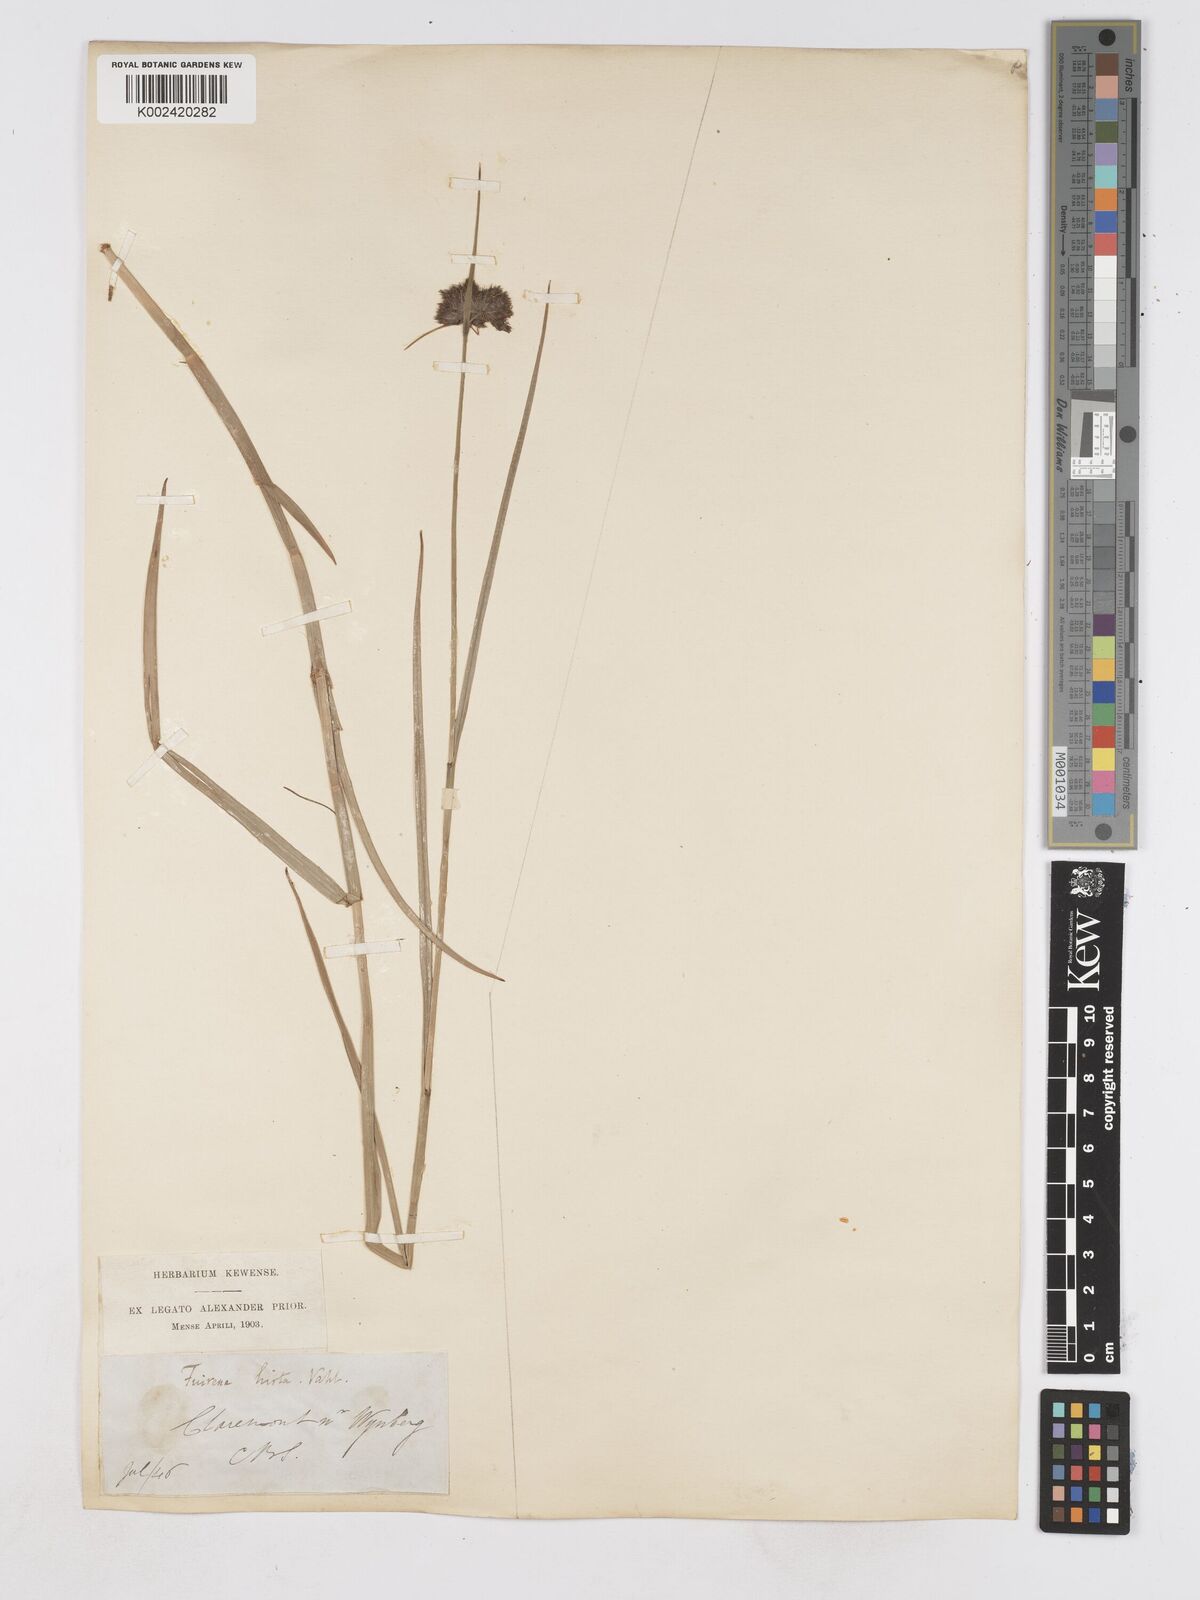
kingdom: Plantae
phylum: Tracheophyta
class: Liliopsida
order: Poales
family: Cyperaceae
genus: Fuirena
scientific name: Fuirena hirsuta
